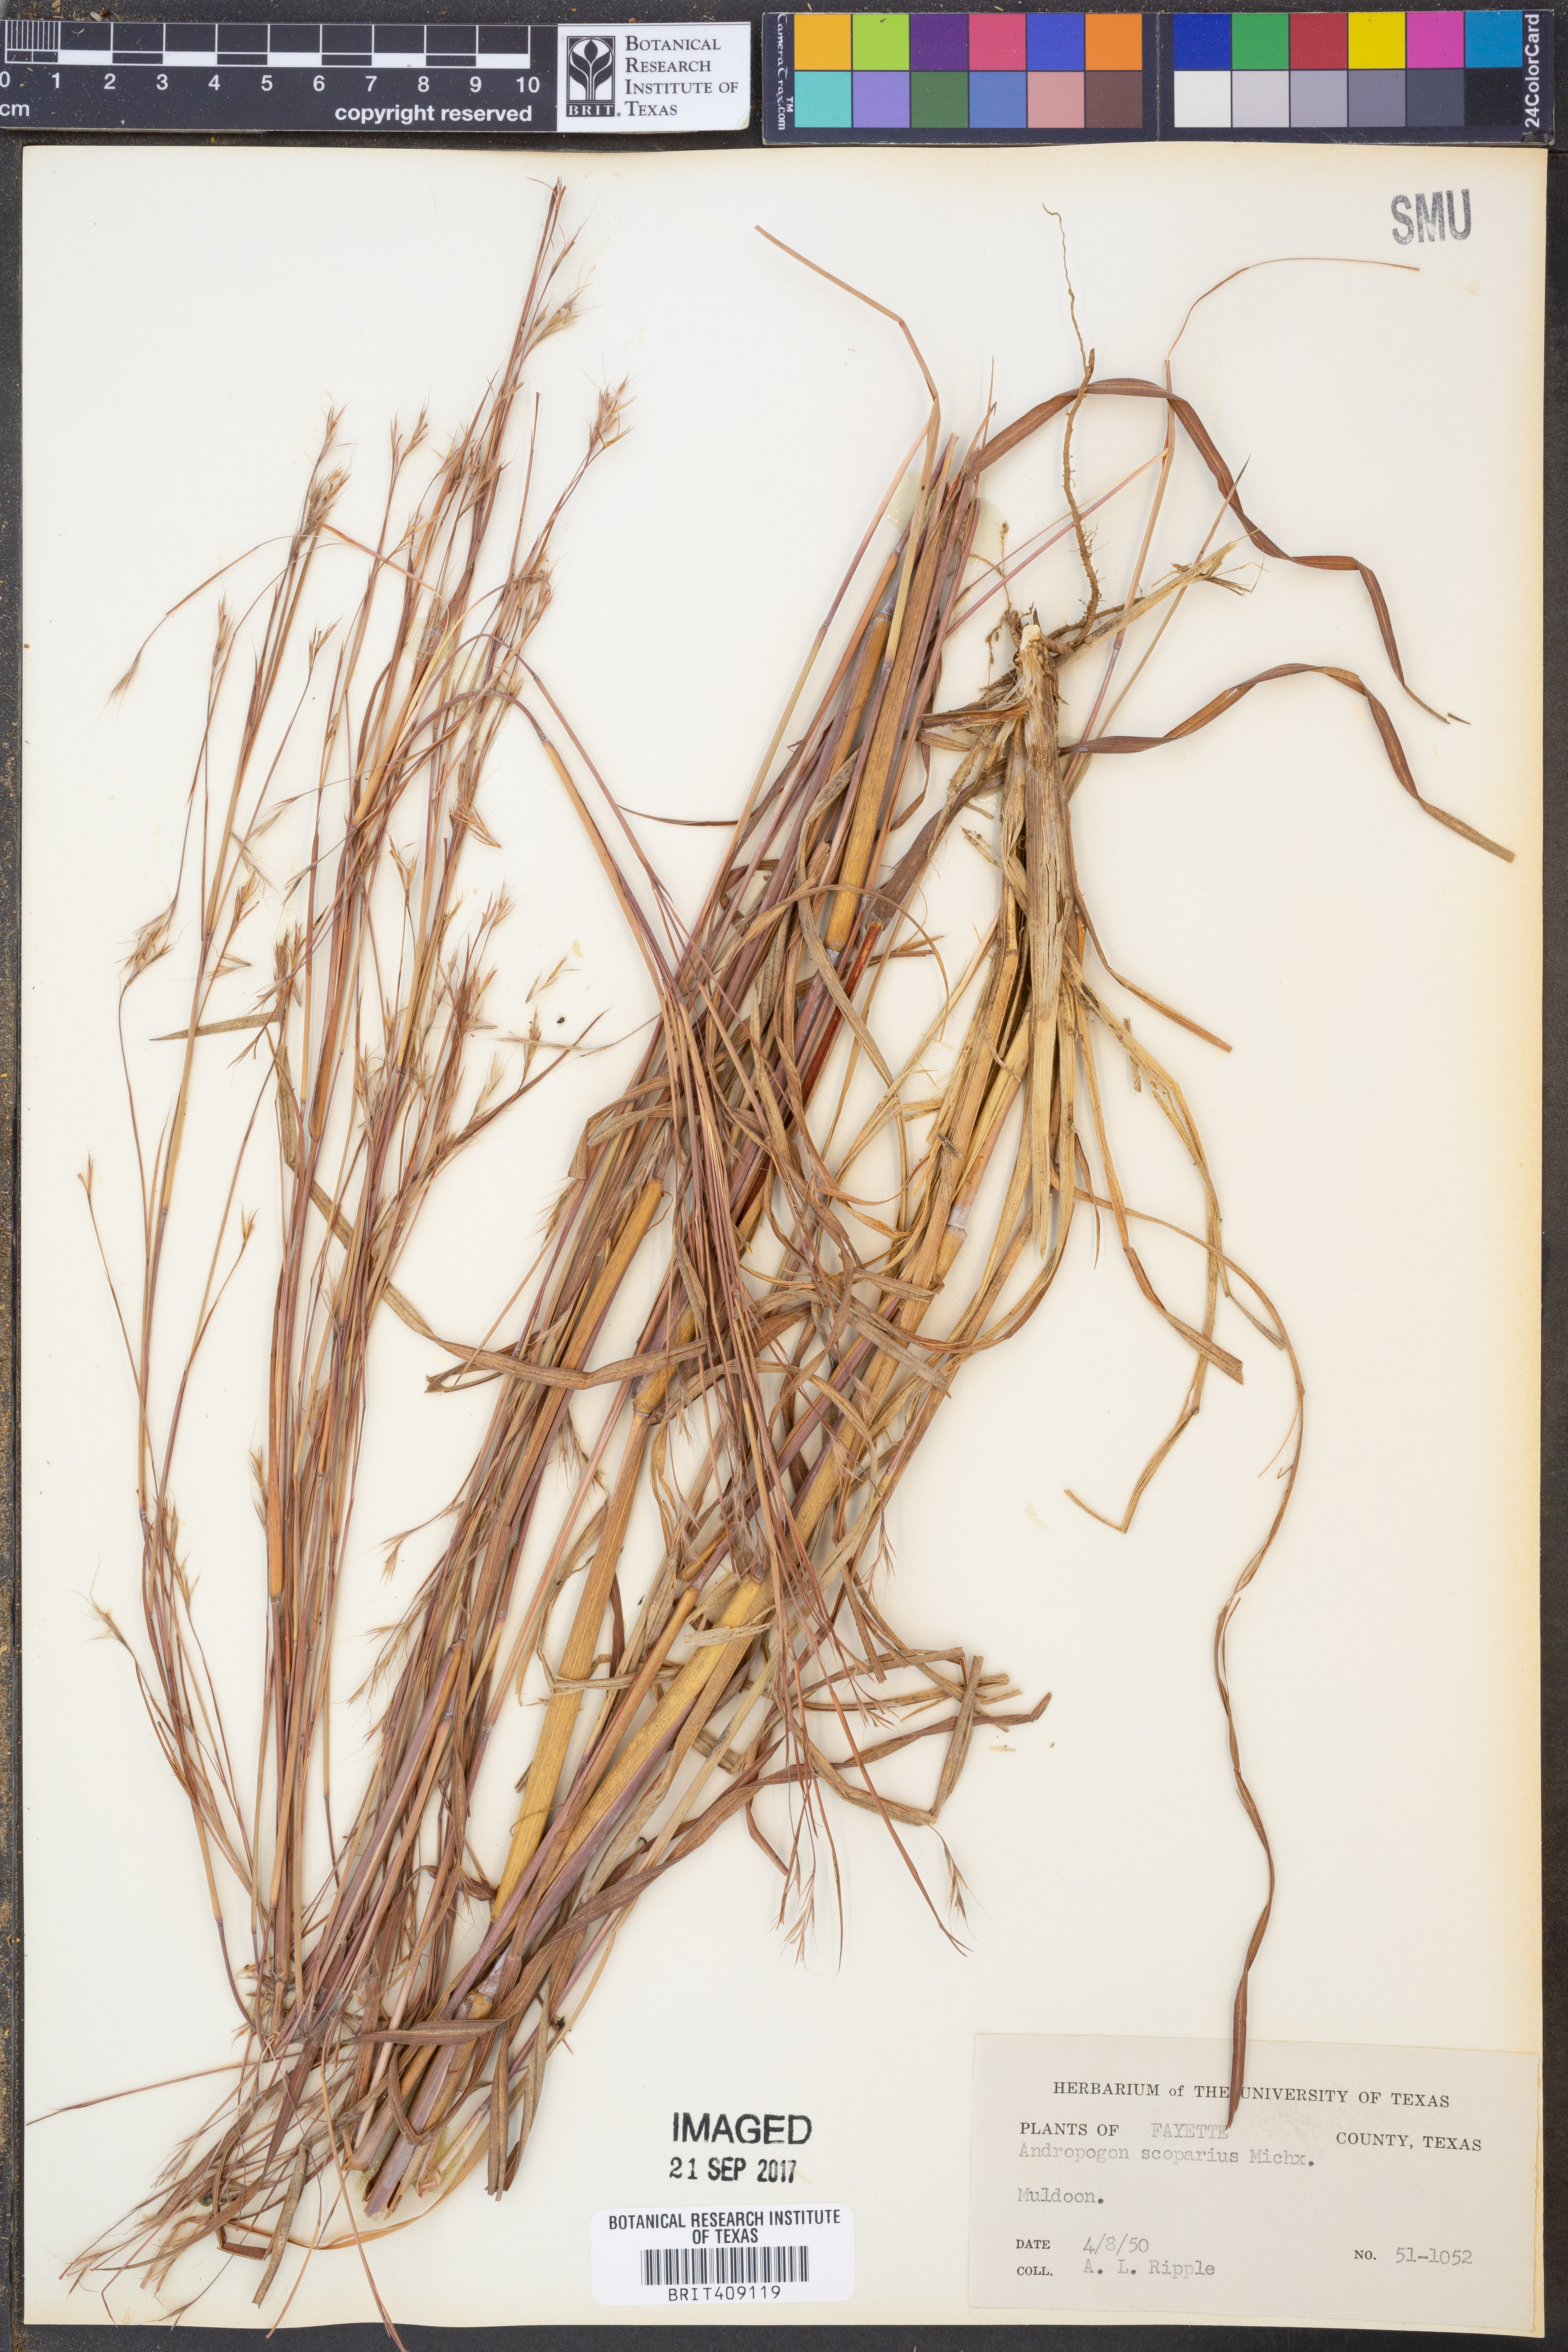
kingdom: Plantae
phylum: Tracheophyta
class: Liliopsida
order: Poales
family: Poaceae
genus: Schizachyrium
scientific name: Schizachyrium scoparium
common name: Little bluestem
